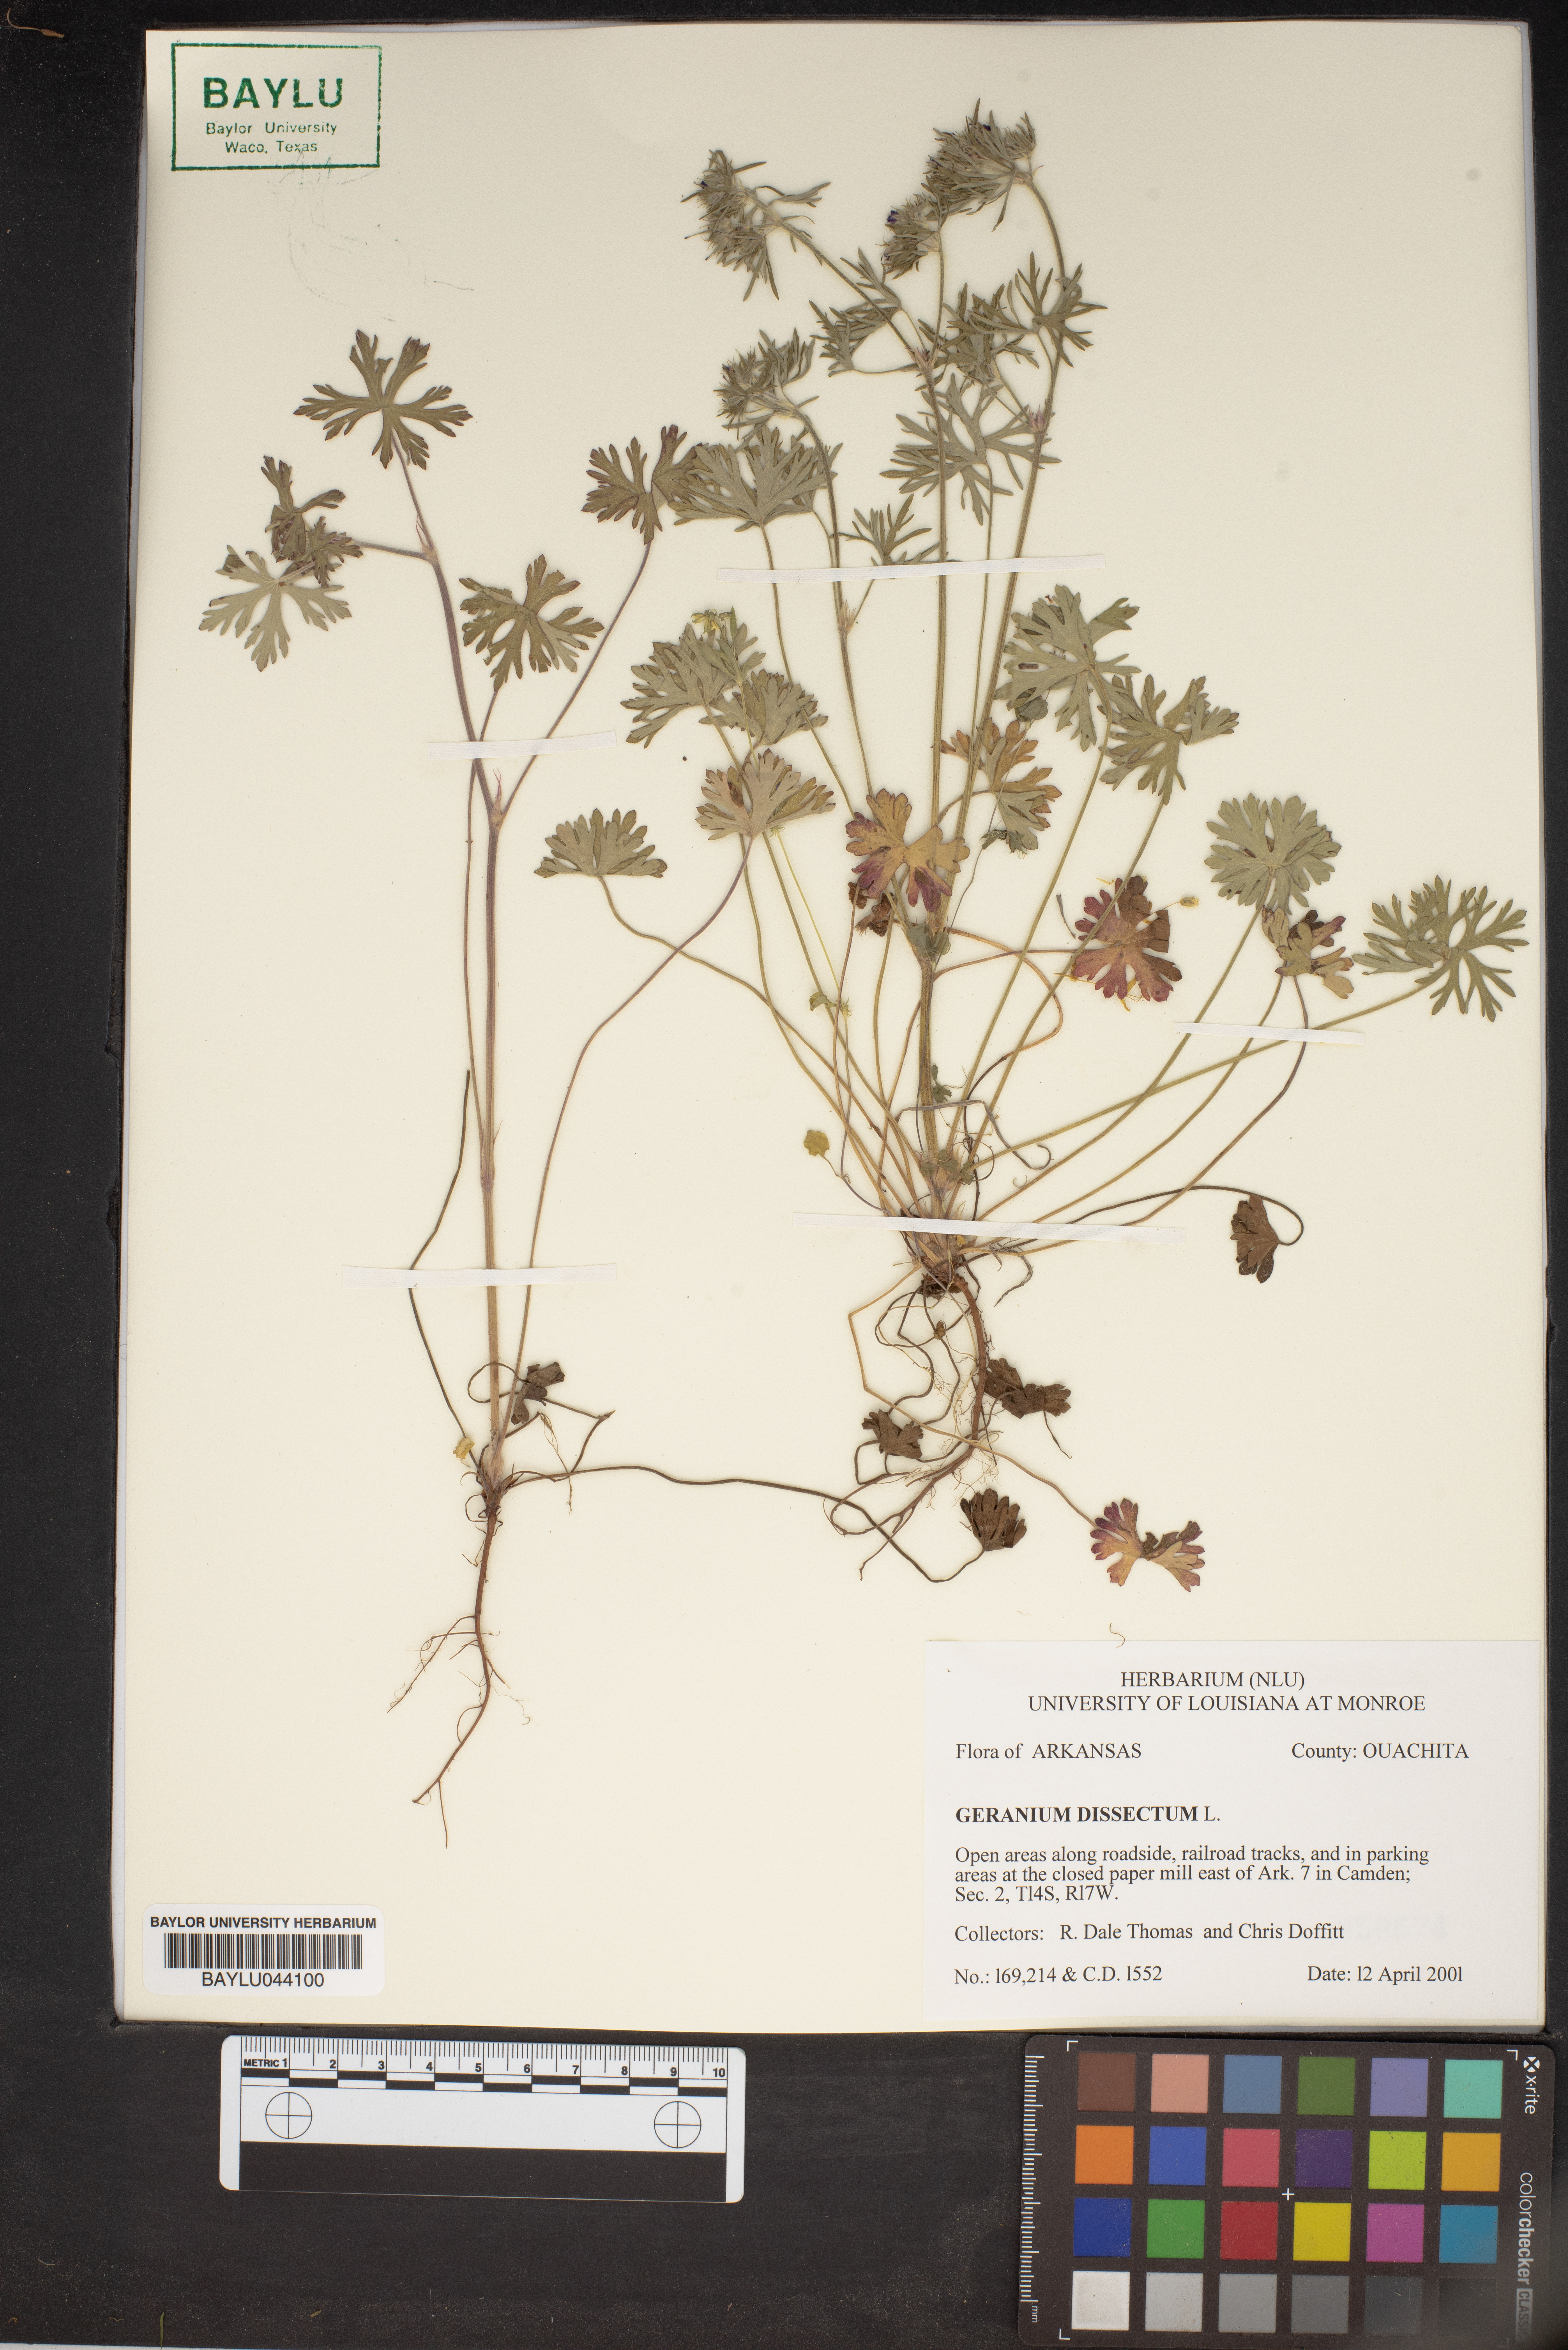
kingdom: Plantae
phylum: Tracheophyta
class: Magnoliopsida
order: Geraniales
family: Geraniaceae
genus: Geranium
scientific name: Geranium dissectum
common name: Cut-leaved crane's-bill
